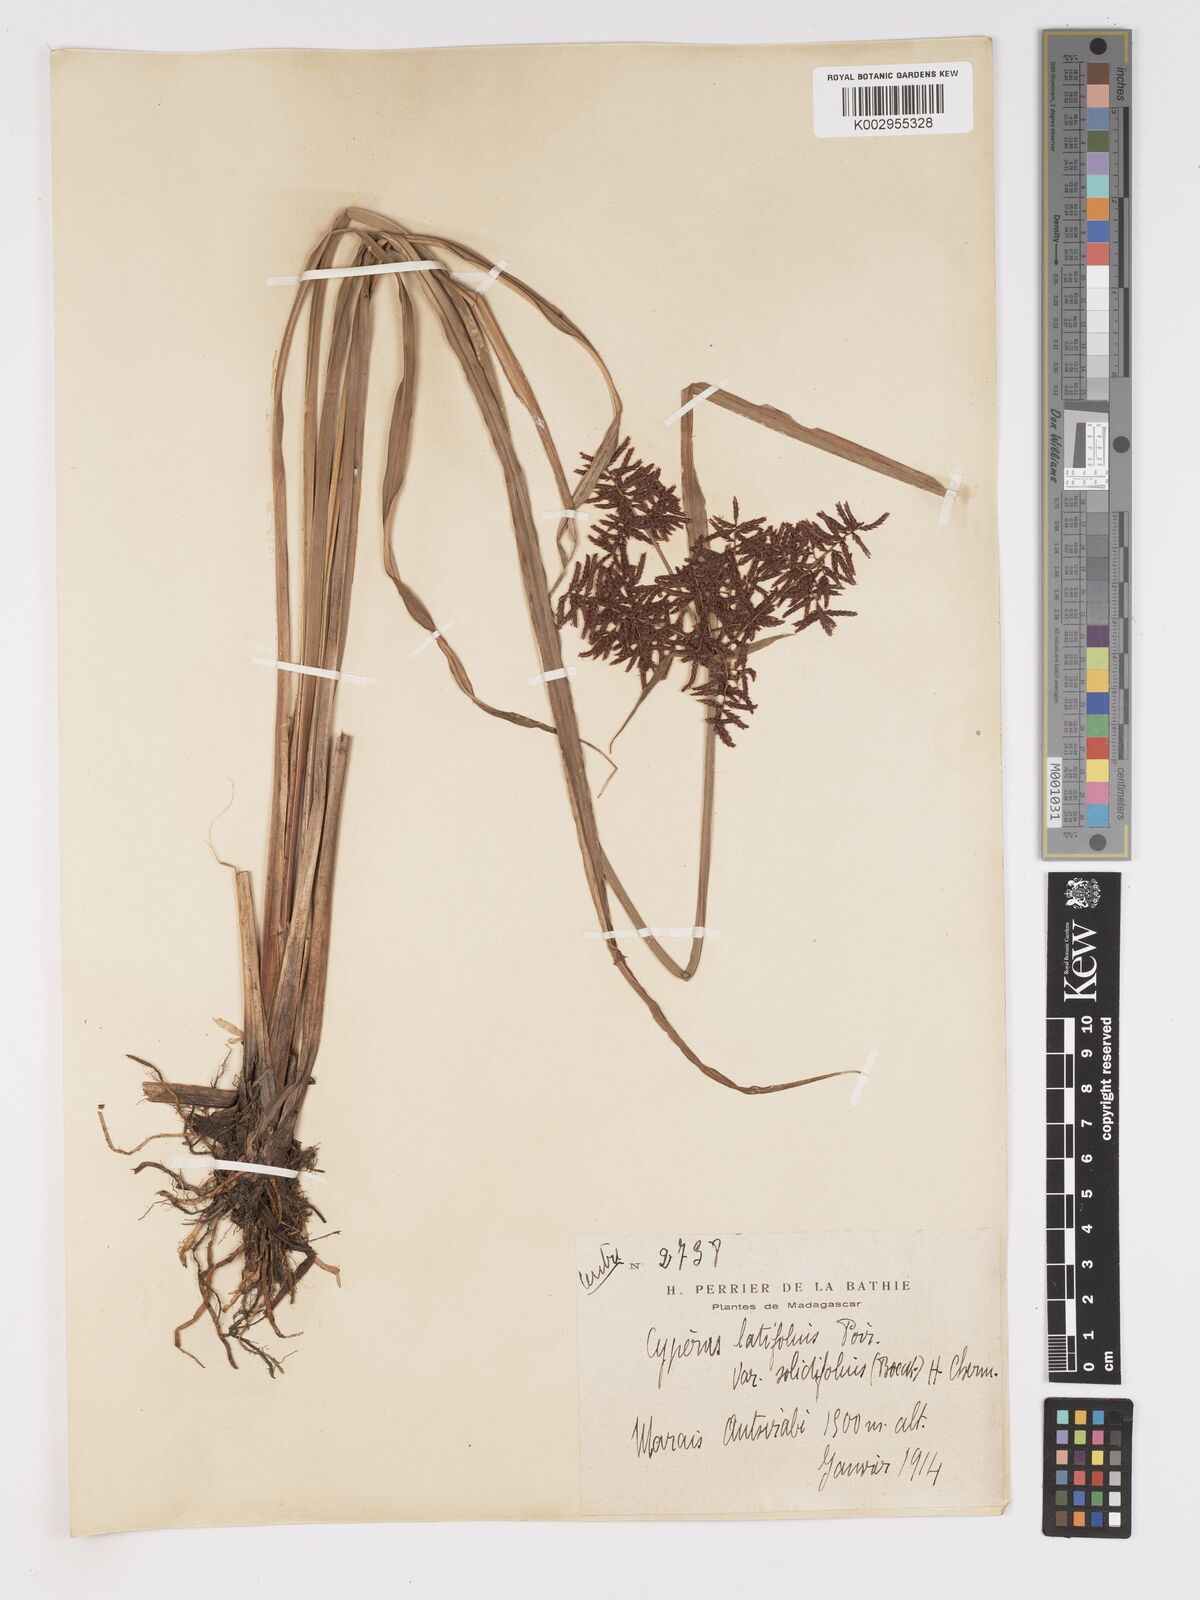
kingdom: Plantae
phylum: Tracheophyta
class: Liliopsida
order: Poales
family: Cyperaceae
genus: Cyperus
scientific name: Cyperus latifolius
